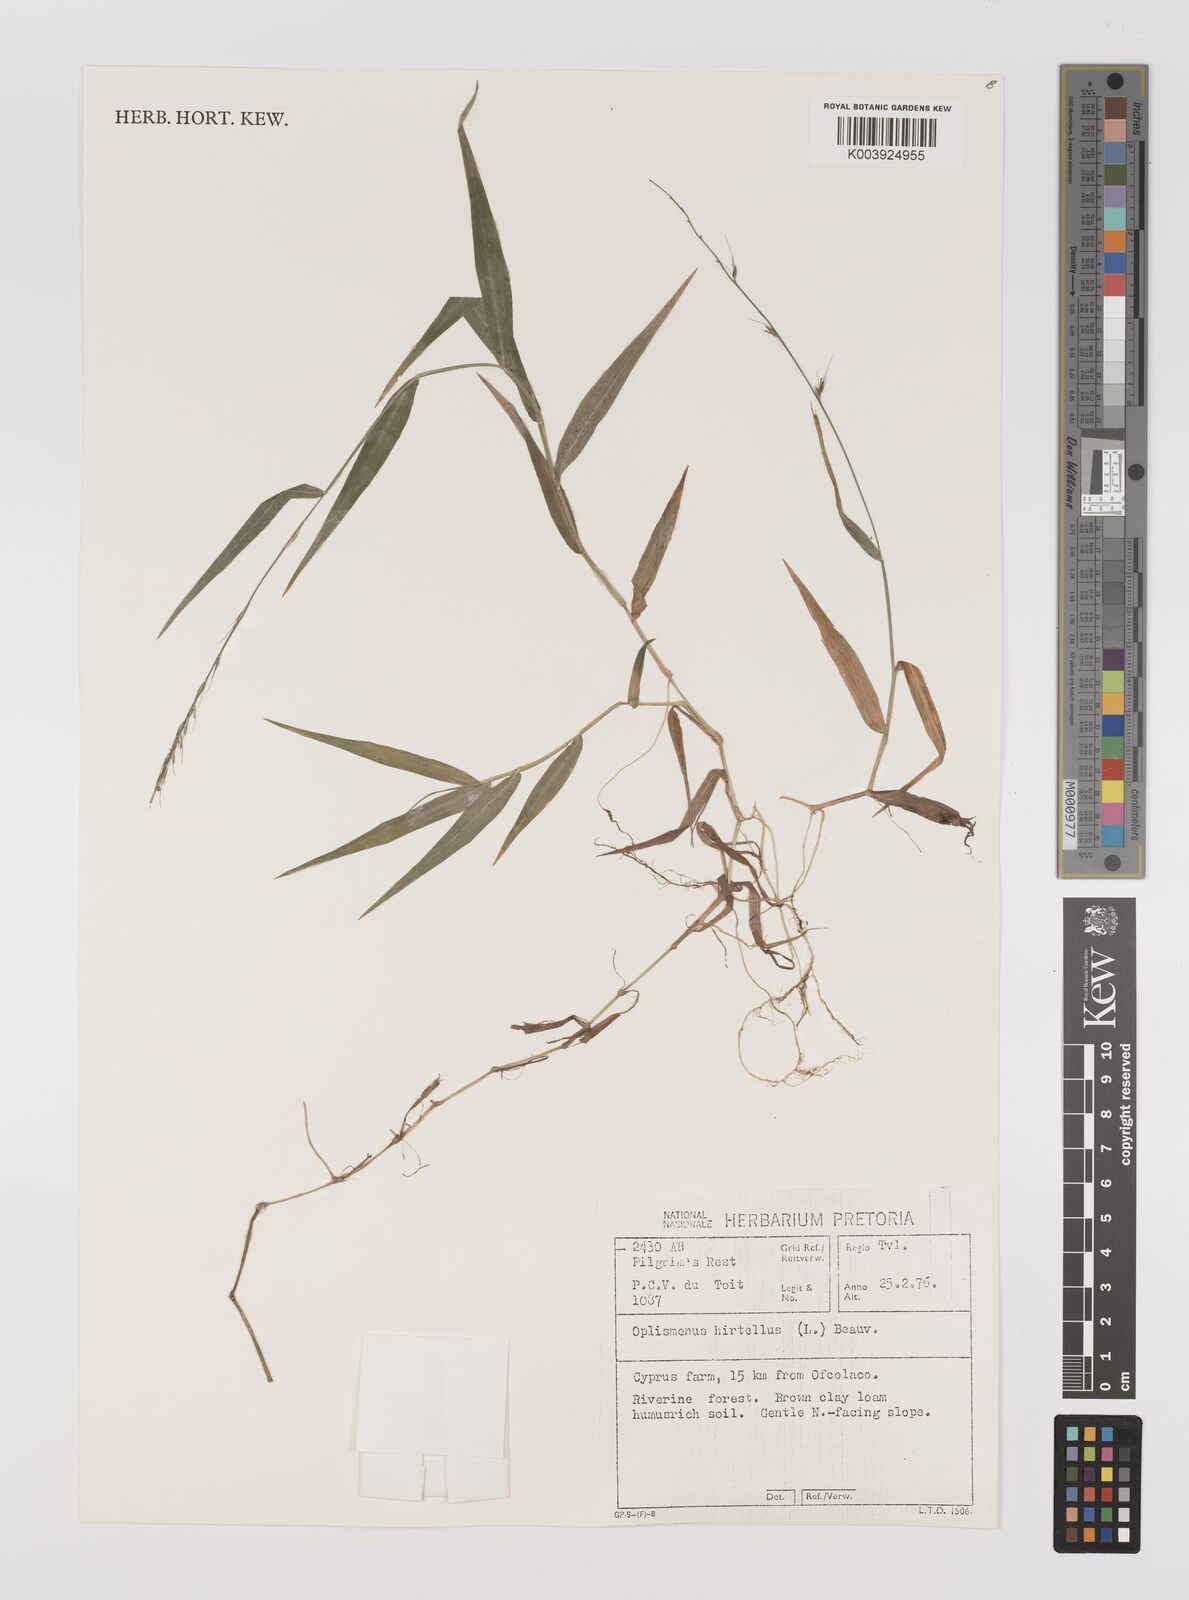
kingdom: Plantae
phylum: Tracheophyta
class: Liliopsida
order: Poales
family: Poaceae
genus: Oplismenus
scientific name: Oplismenus hirtellus
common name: Basketgrass
